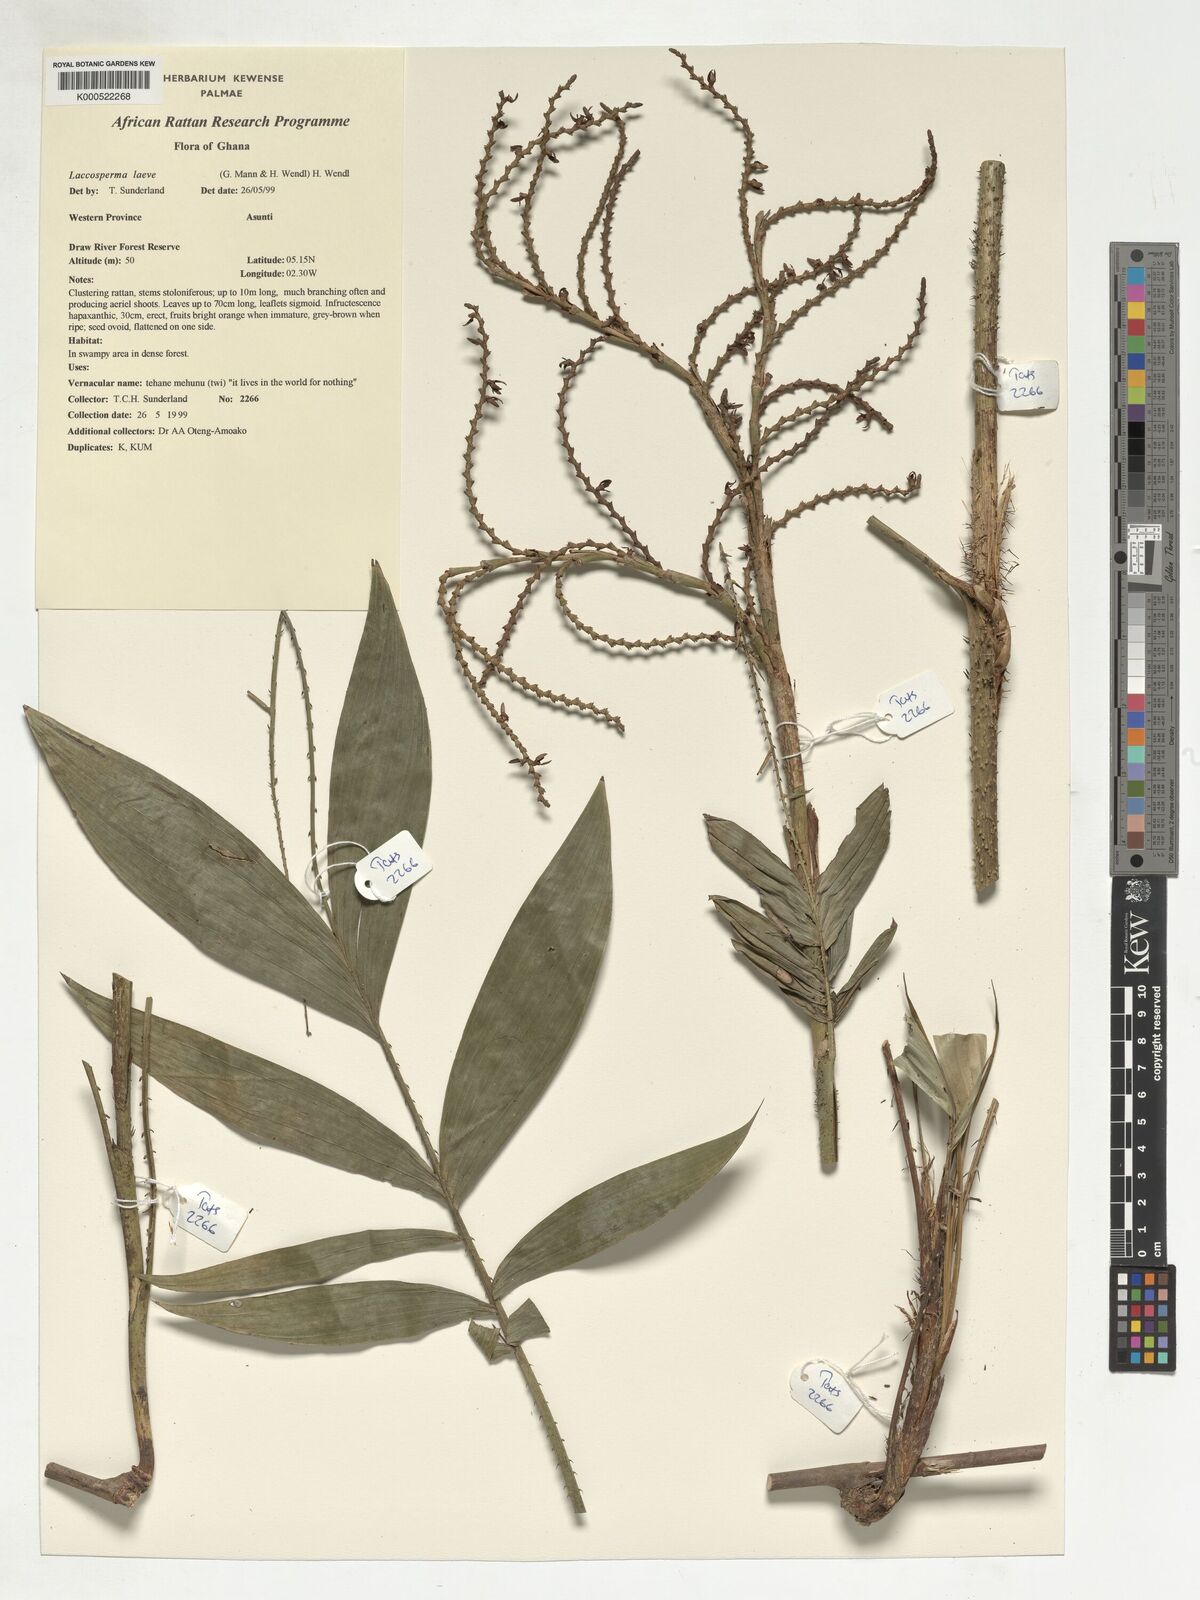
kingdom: Plantae
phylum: Tracheophyta
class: Liliopsida
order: Arecales
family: Arecaceae
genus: Laccosperma
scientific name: Laccosperma laeve
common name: Rattan
